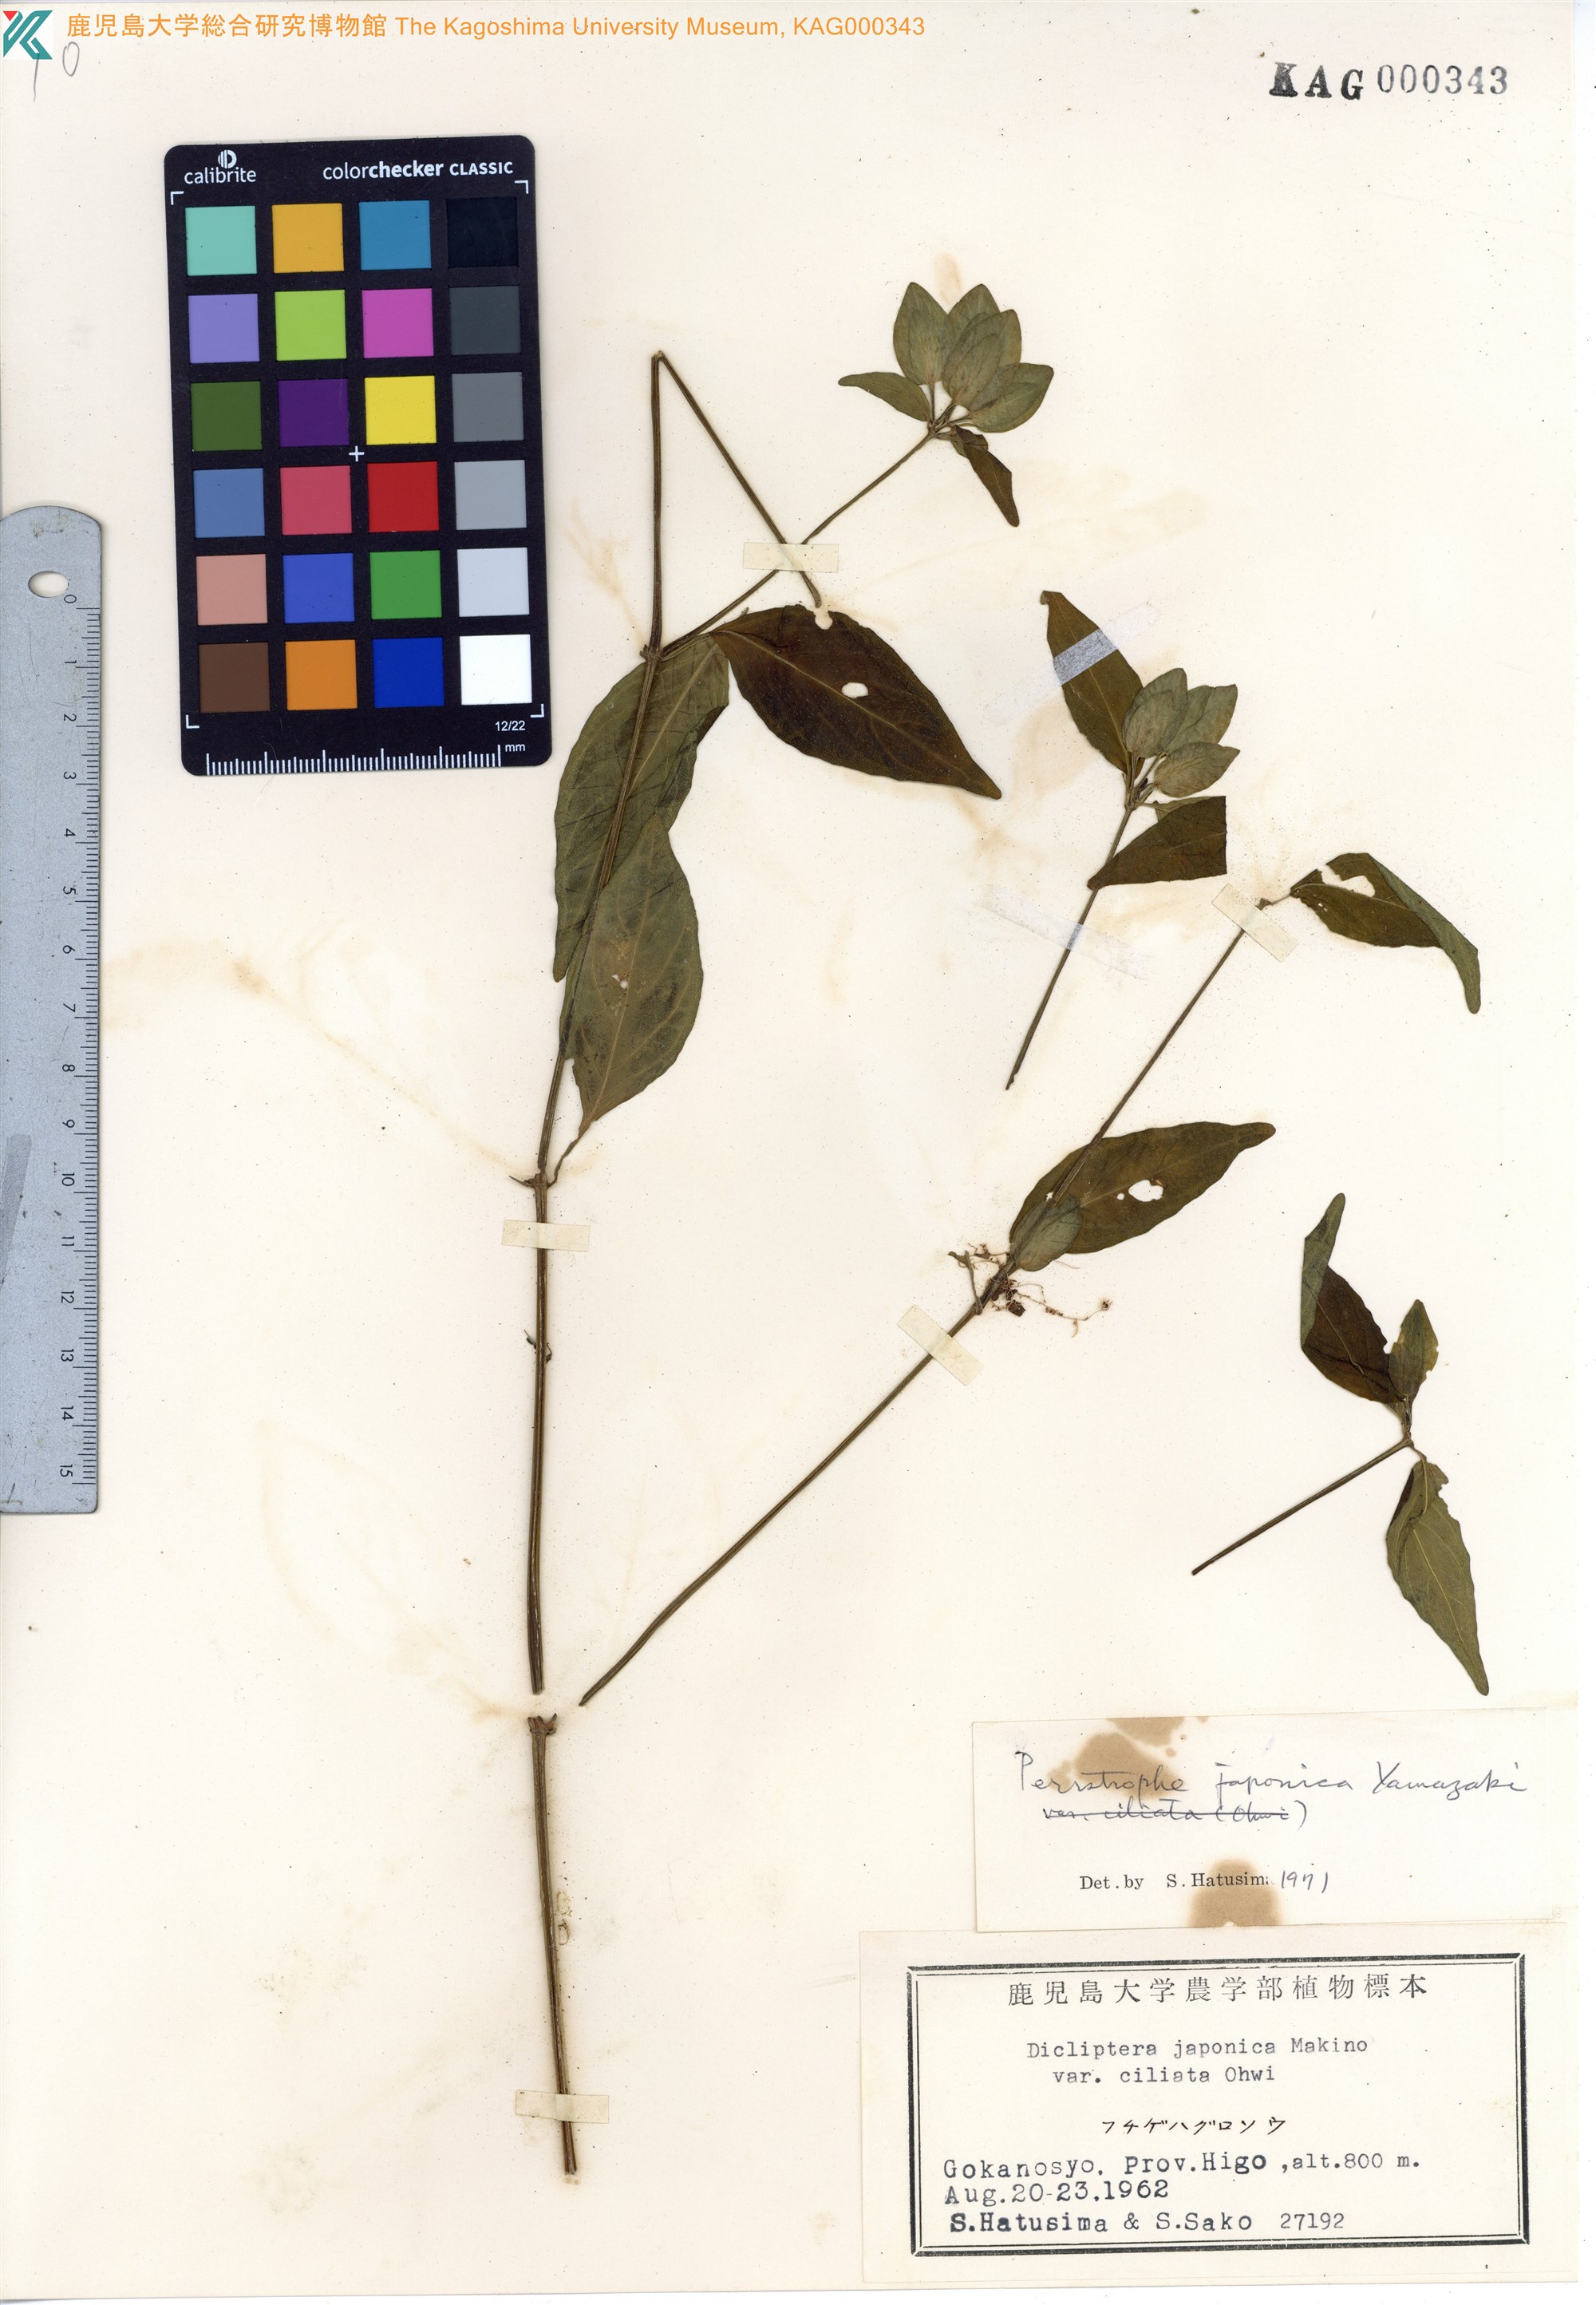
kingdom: Plantae
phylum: Tracheophyta
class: Magnoliopsida
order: Lamiales
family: Acanthaceae
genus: Dicliptera
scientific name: Dicliptera japonica
